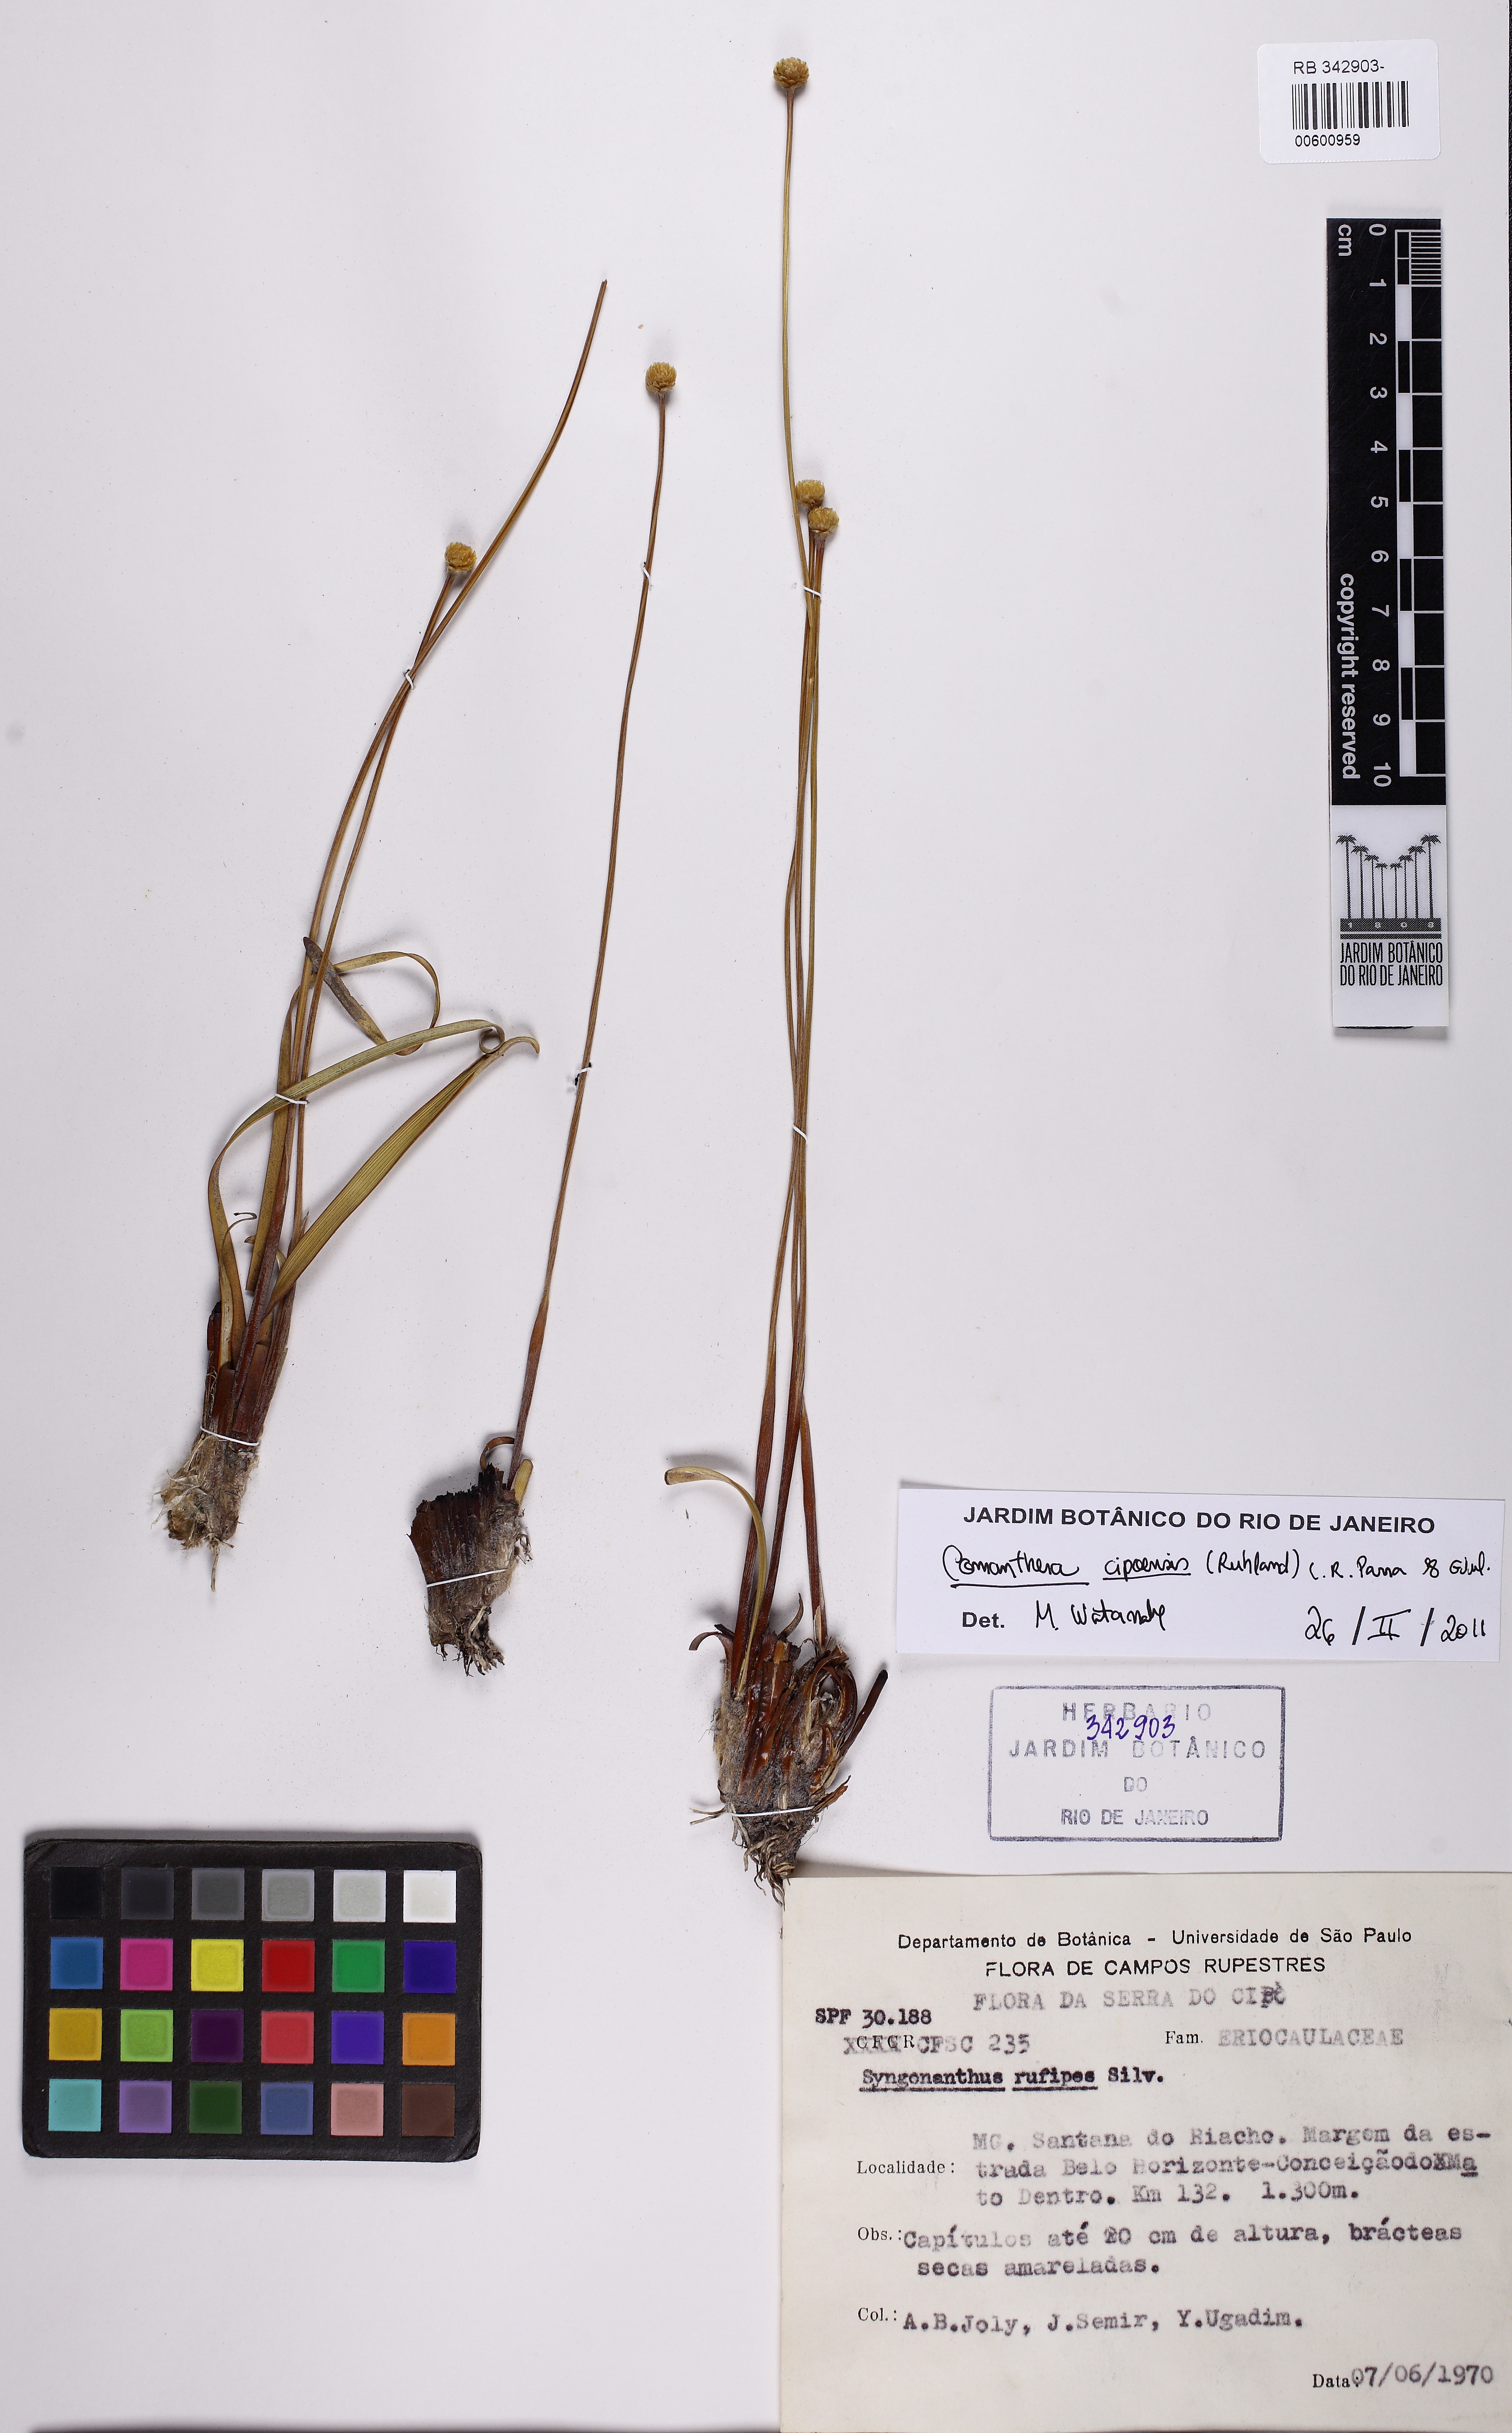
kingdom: Plantae
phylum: Tracheophyta
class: Liliopsida
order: Poales
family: Eriocaulaceae
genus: Comanthera
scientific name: Comanthera cipoensis
